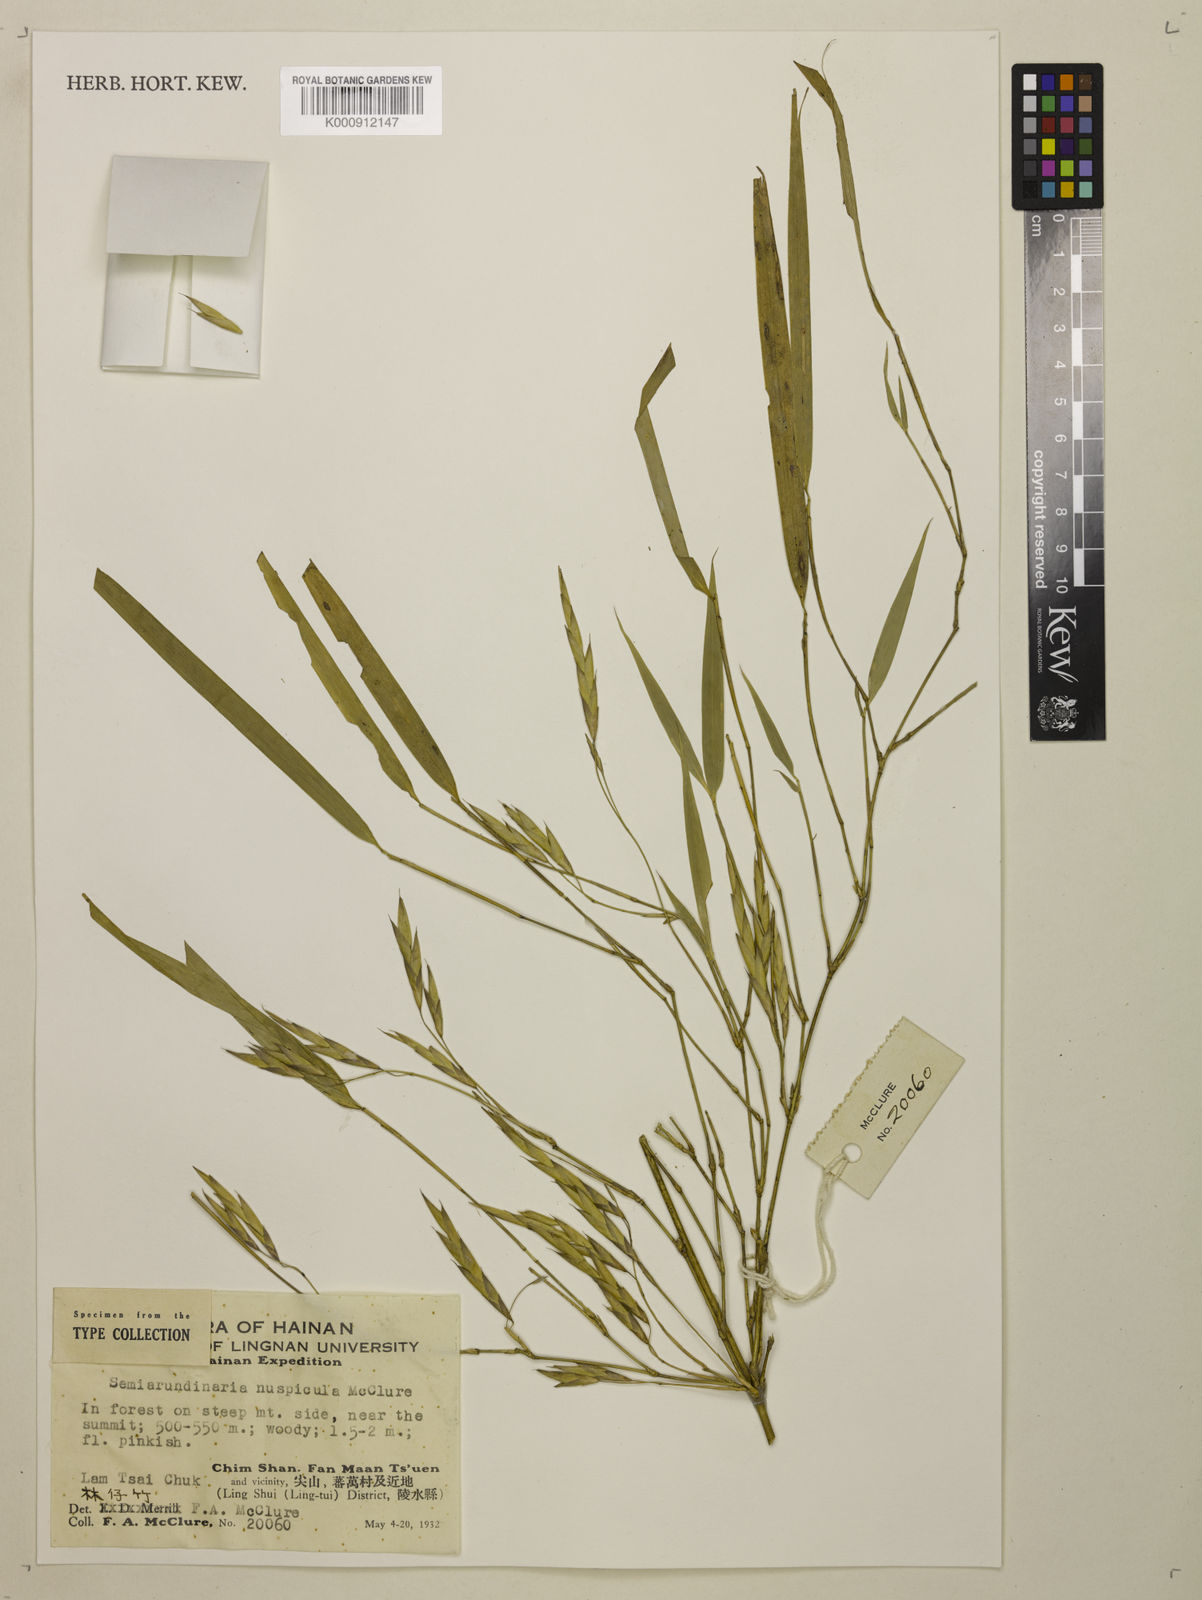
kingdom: Plantae
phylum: Tracheophyta
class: Liliopsida
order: Poales
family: Poaceae
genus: Oligostachyum
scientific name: Oligostachyum nuspiculum
